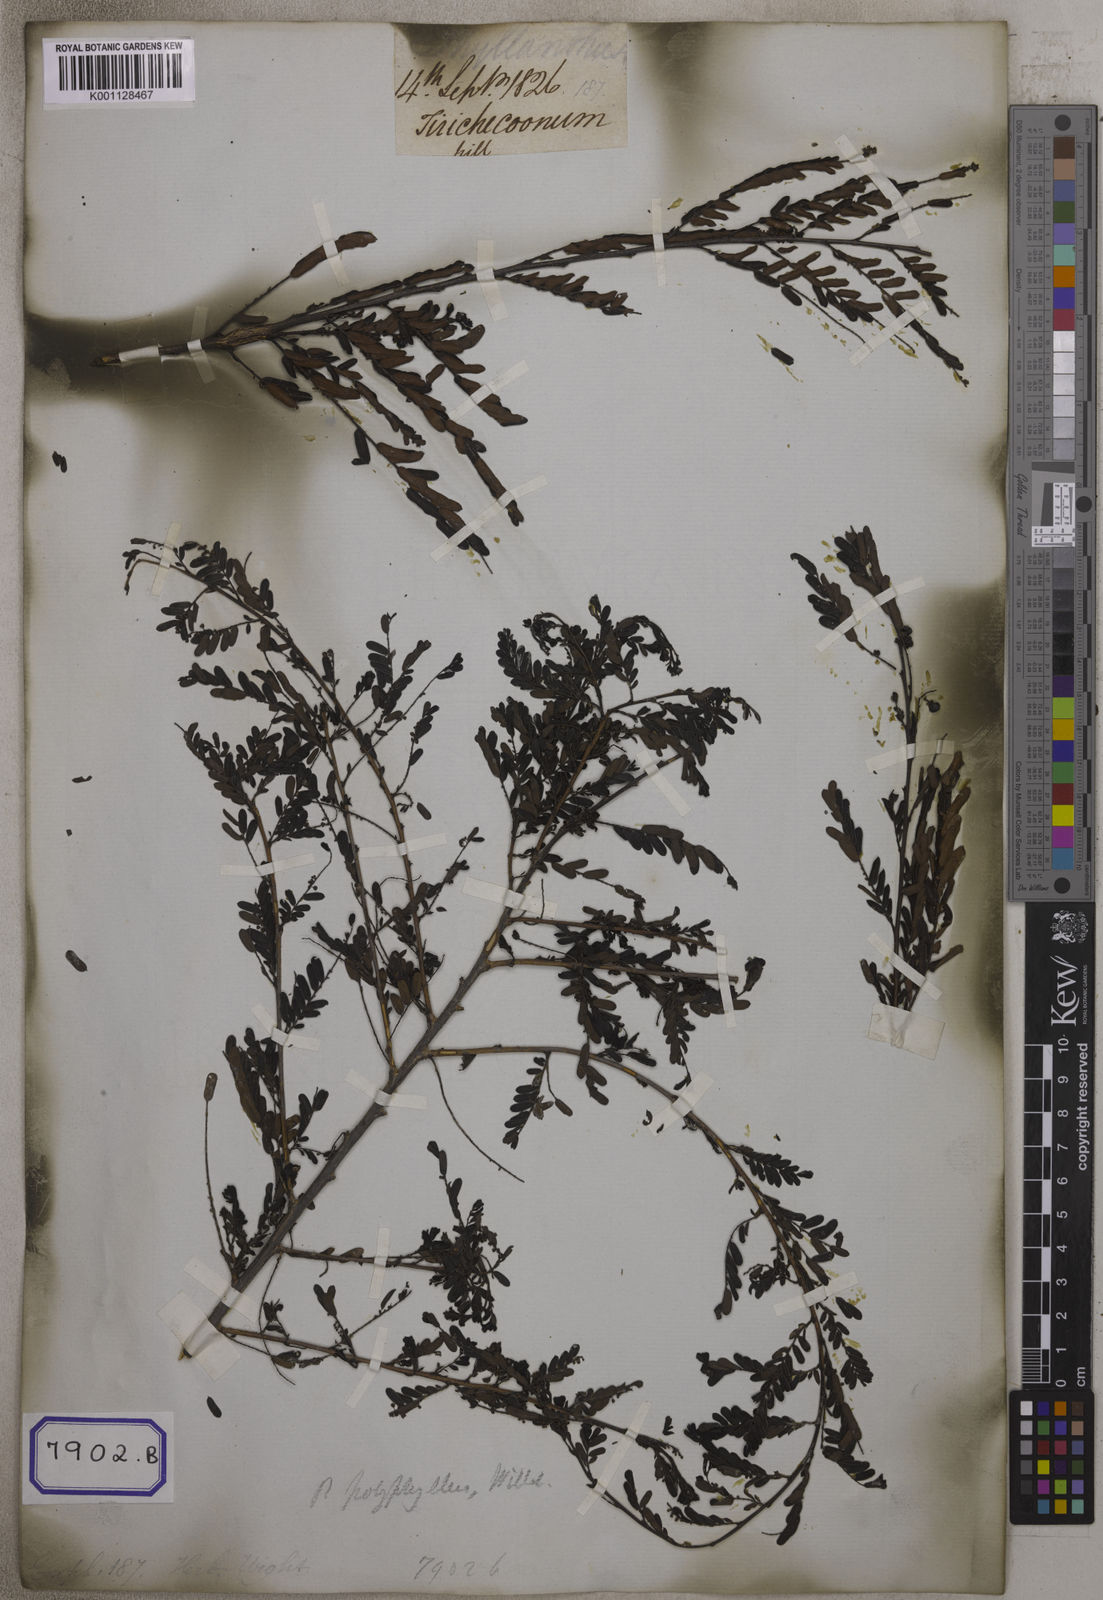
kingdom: Plantae
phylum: Tracheophyta
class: Magnoliopsida
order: Malpighiales
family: Euphorbiaceae
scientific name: Euphorbiaceae
